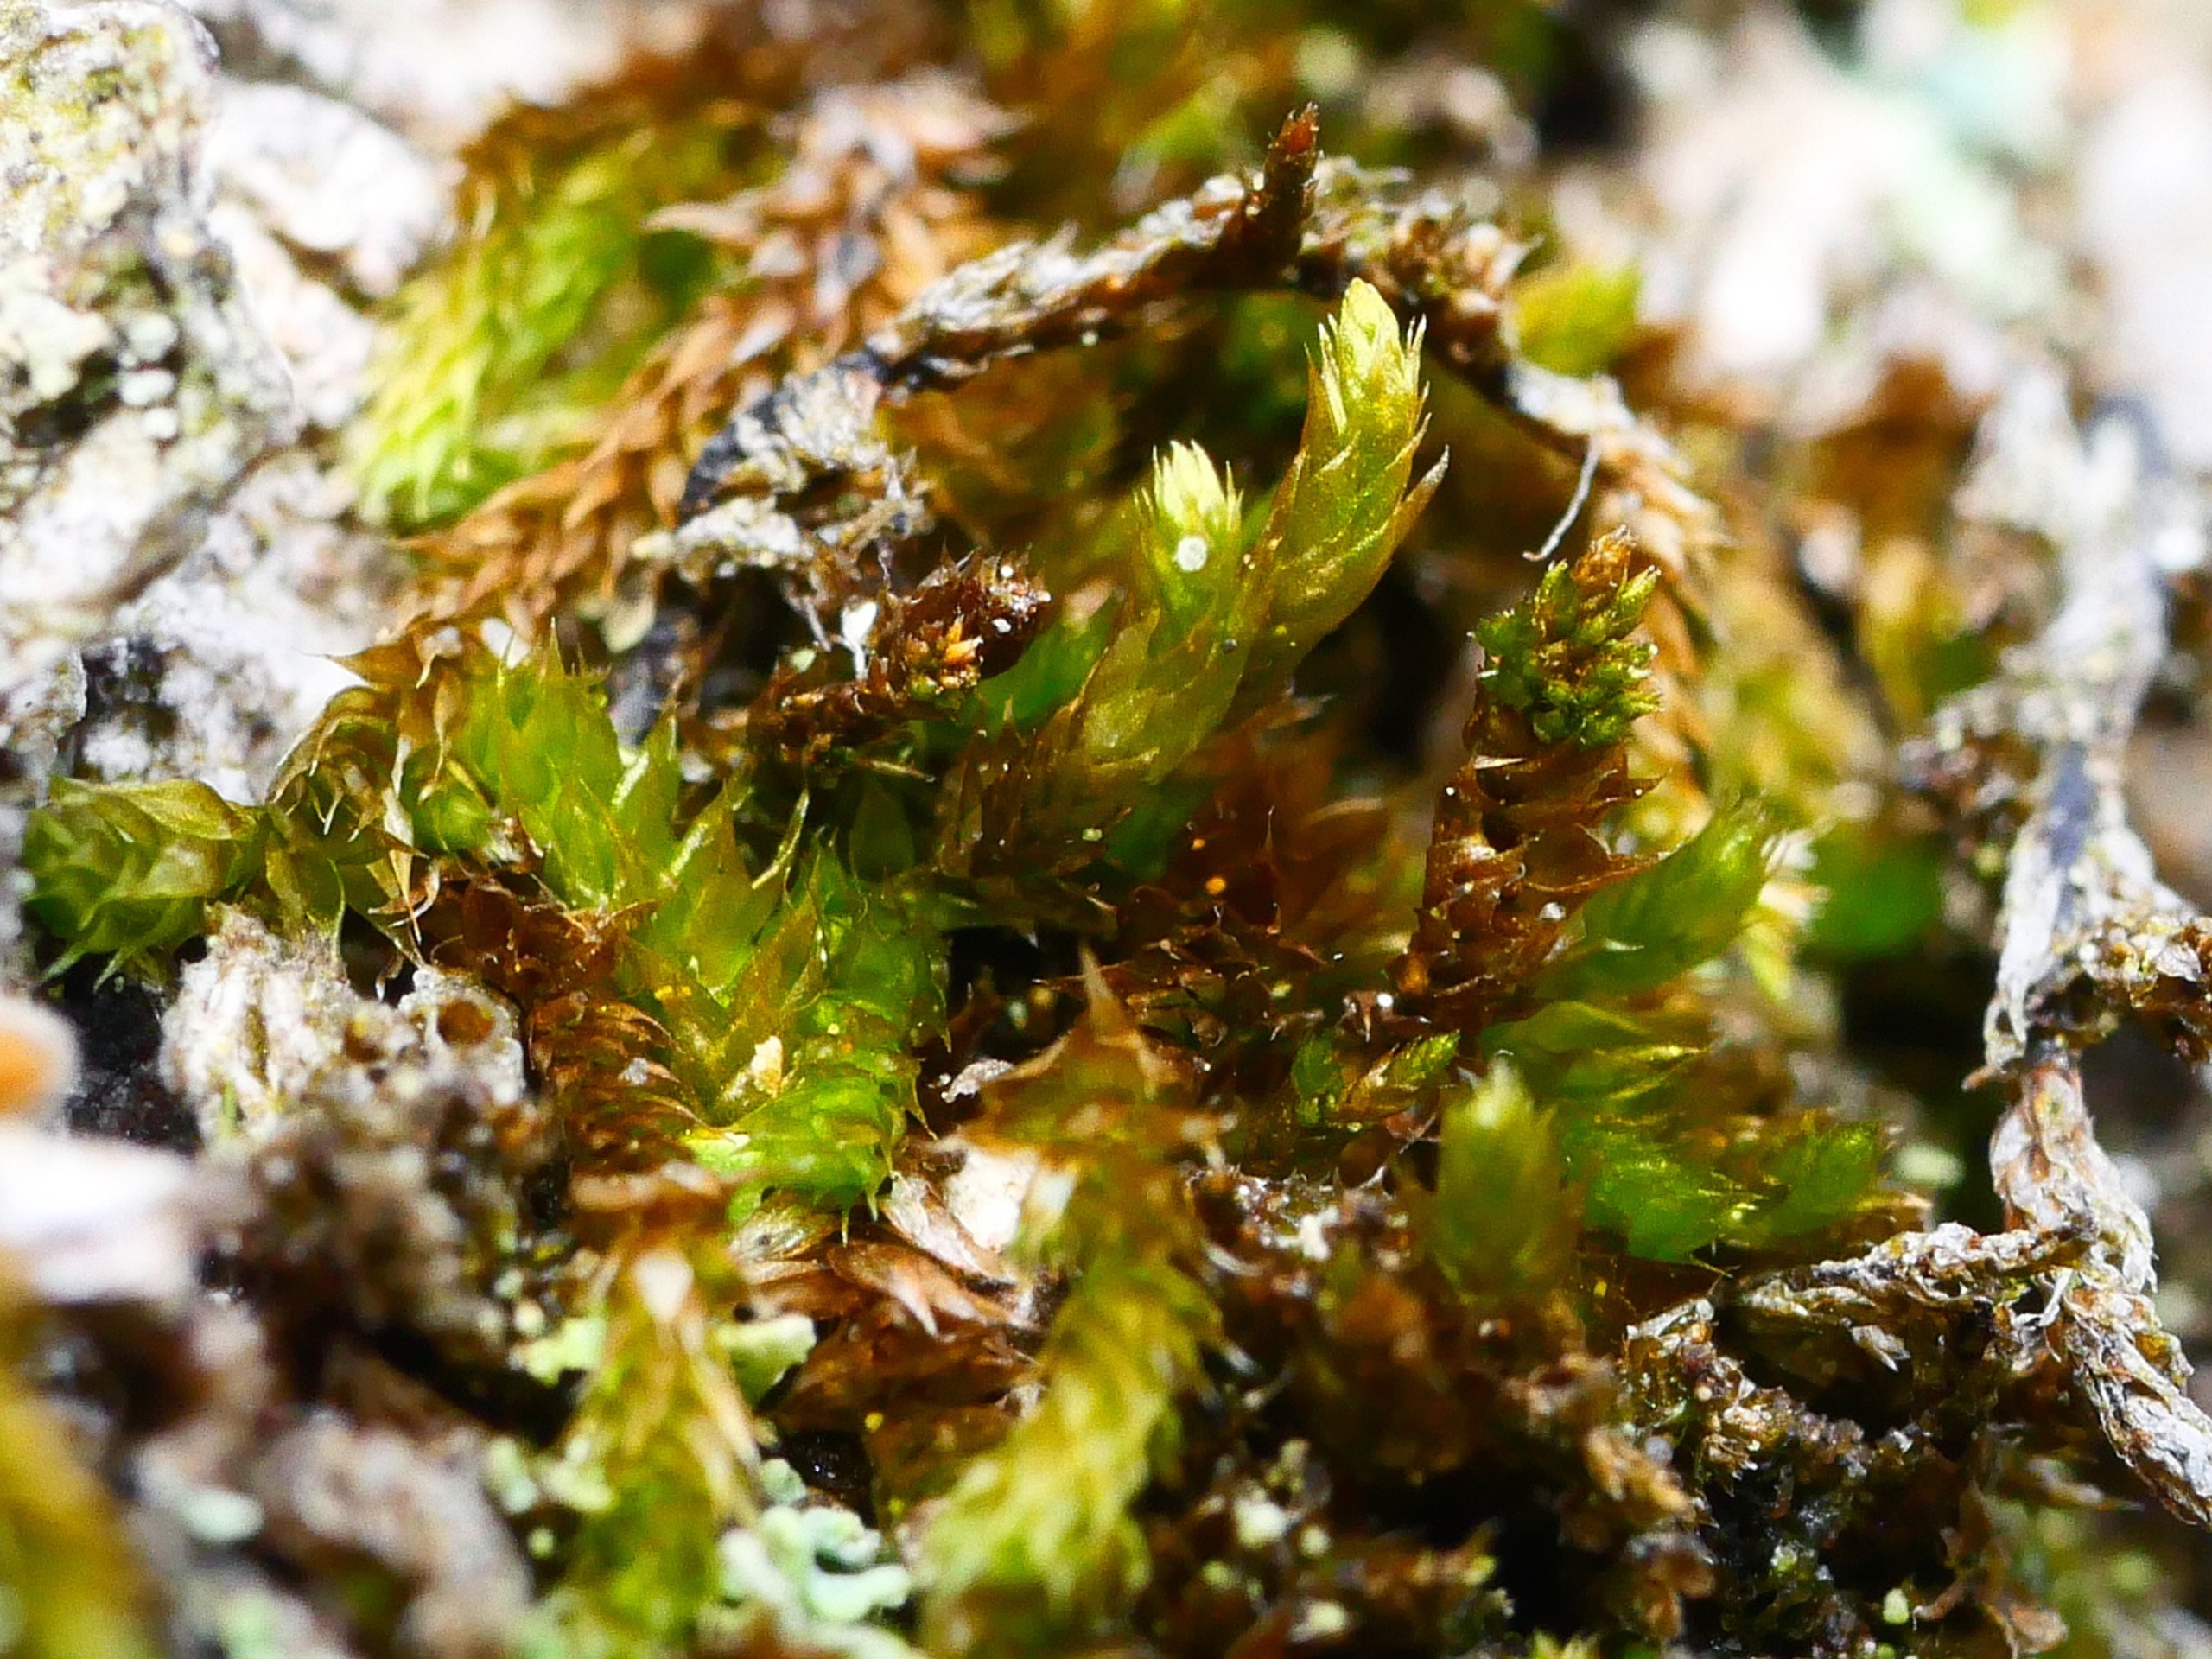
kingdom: Plantae
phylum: Bryophyta
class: Bryopsida
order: Hypnales
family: Pylaisiadelphaceae
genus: Platygyrium
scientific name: Platygyrium repens
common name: Mørk yngleknop
